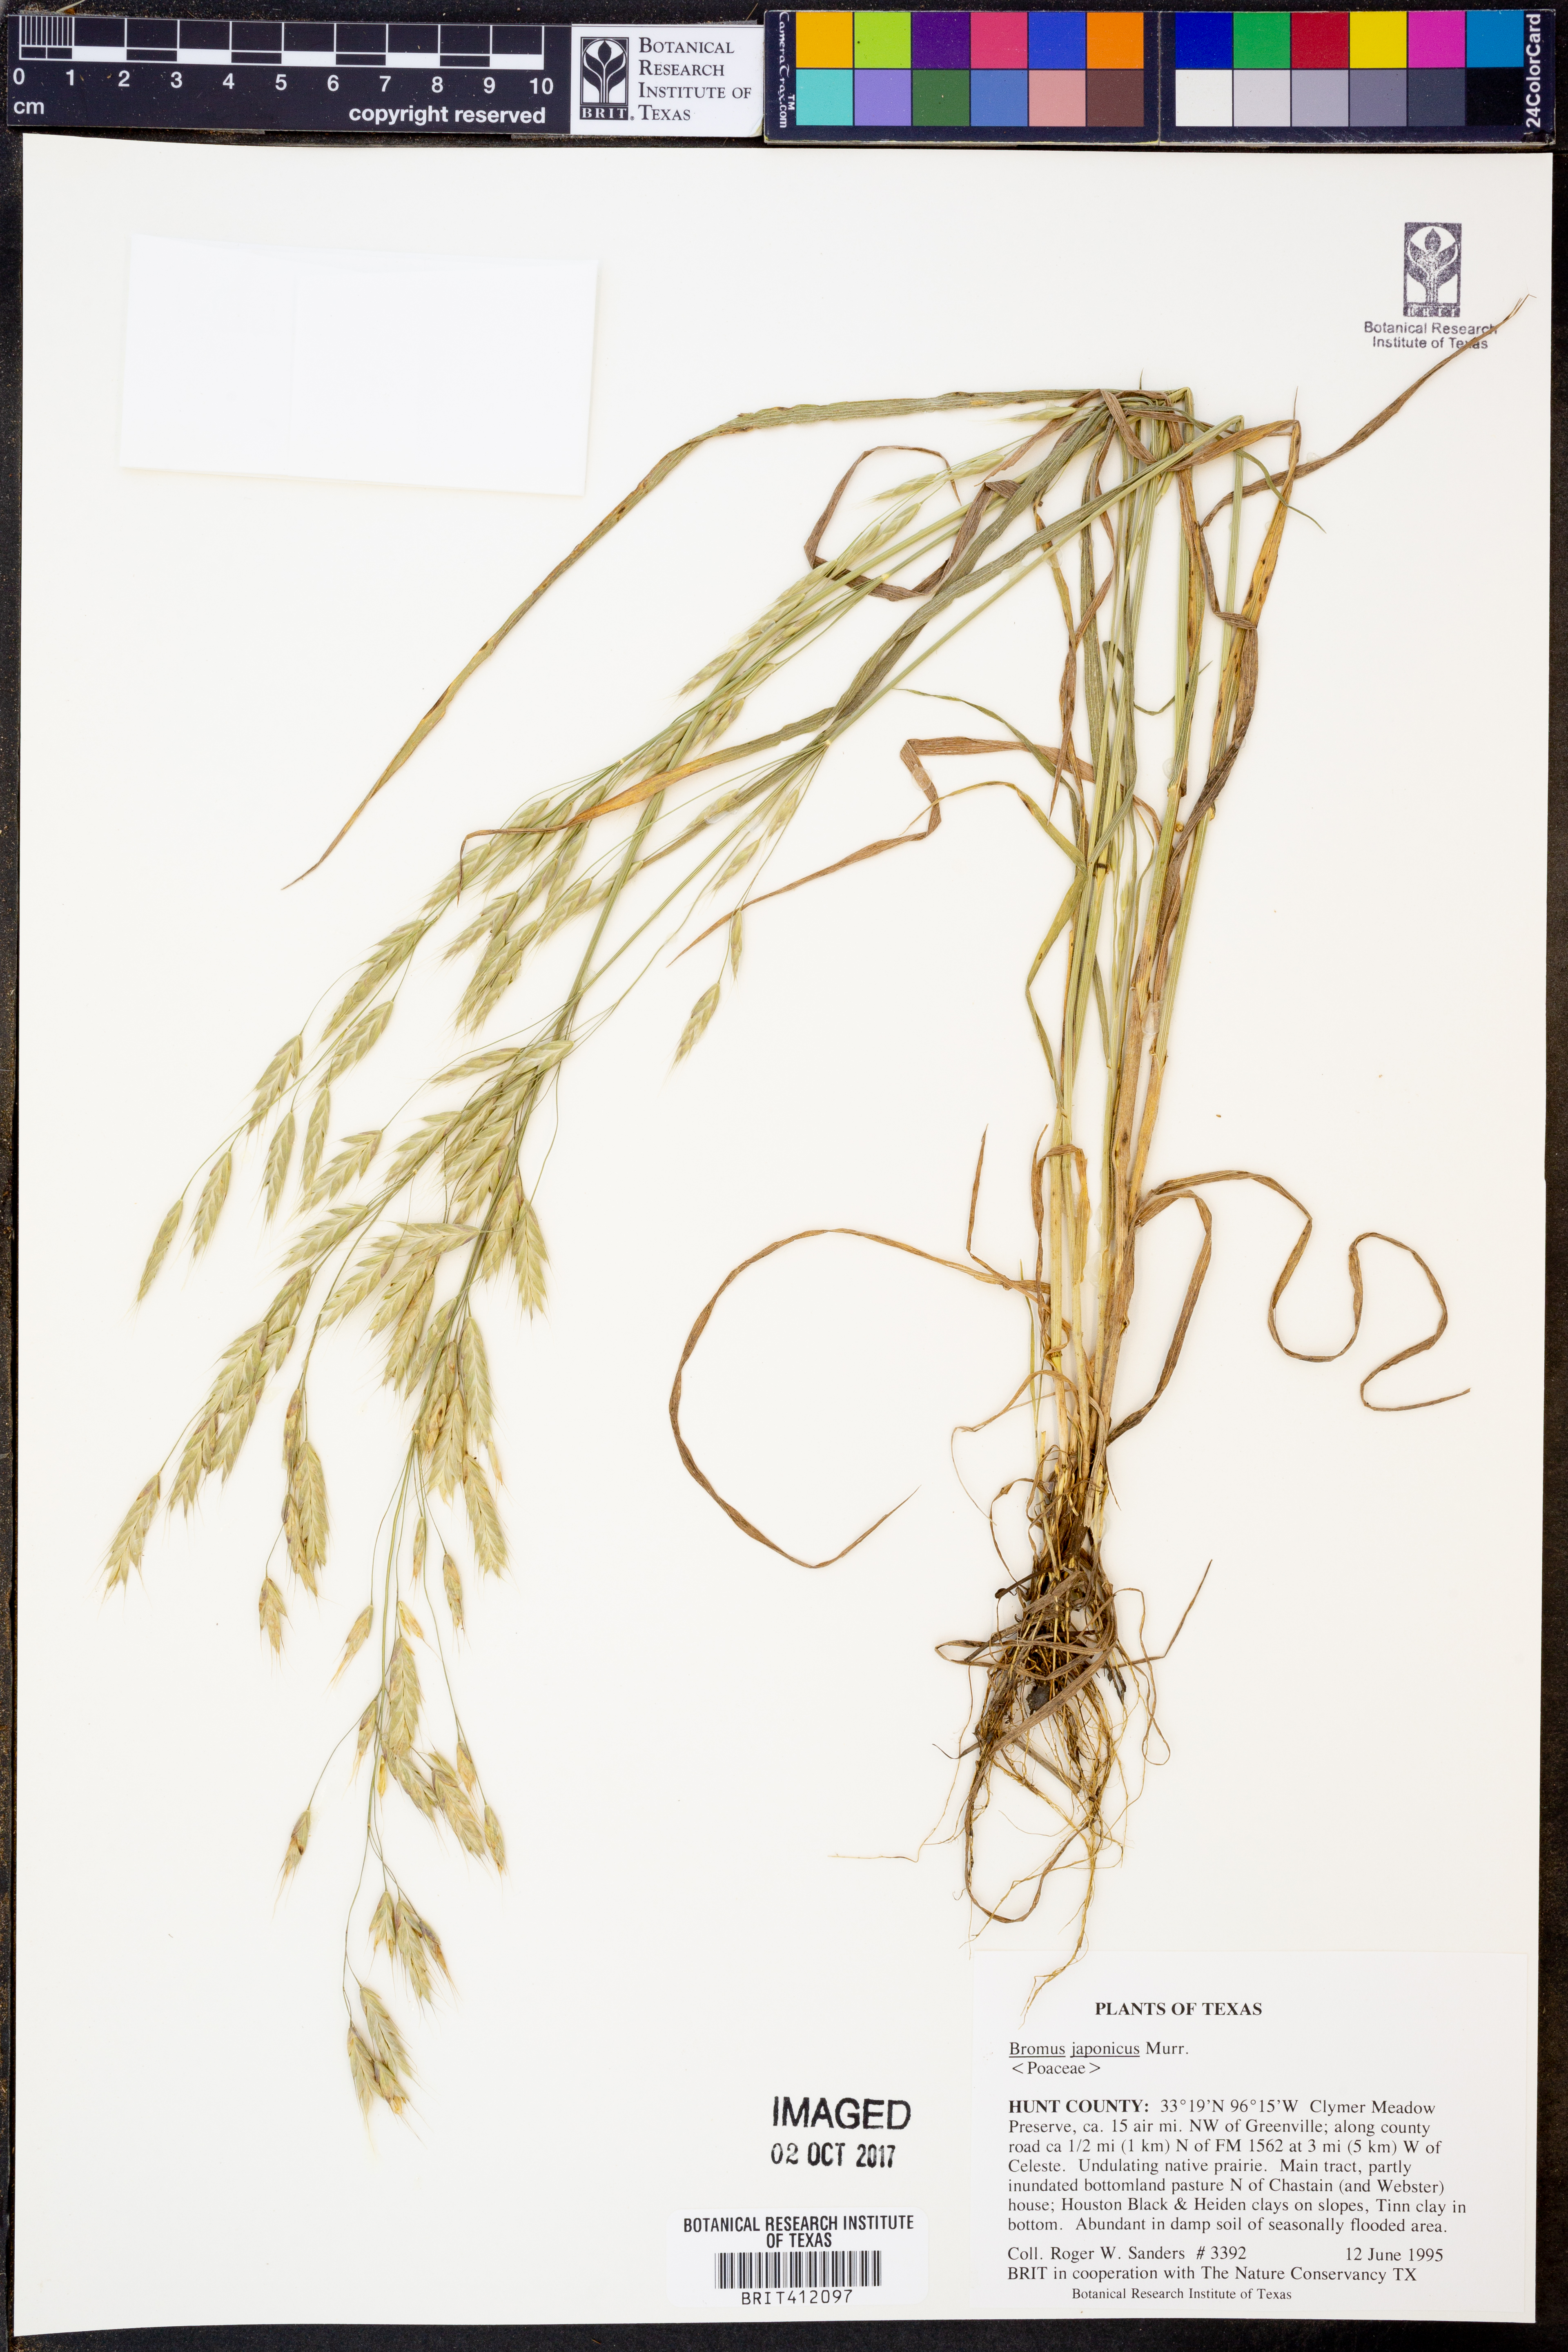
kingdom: Plantae
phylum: Tracheophyta
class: Liliopsida
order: Poales
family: Poaceae
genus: Bromus
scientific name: Bromus japonicus
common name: Japanese brome
